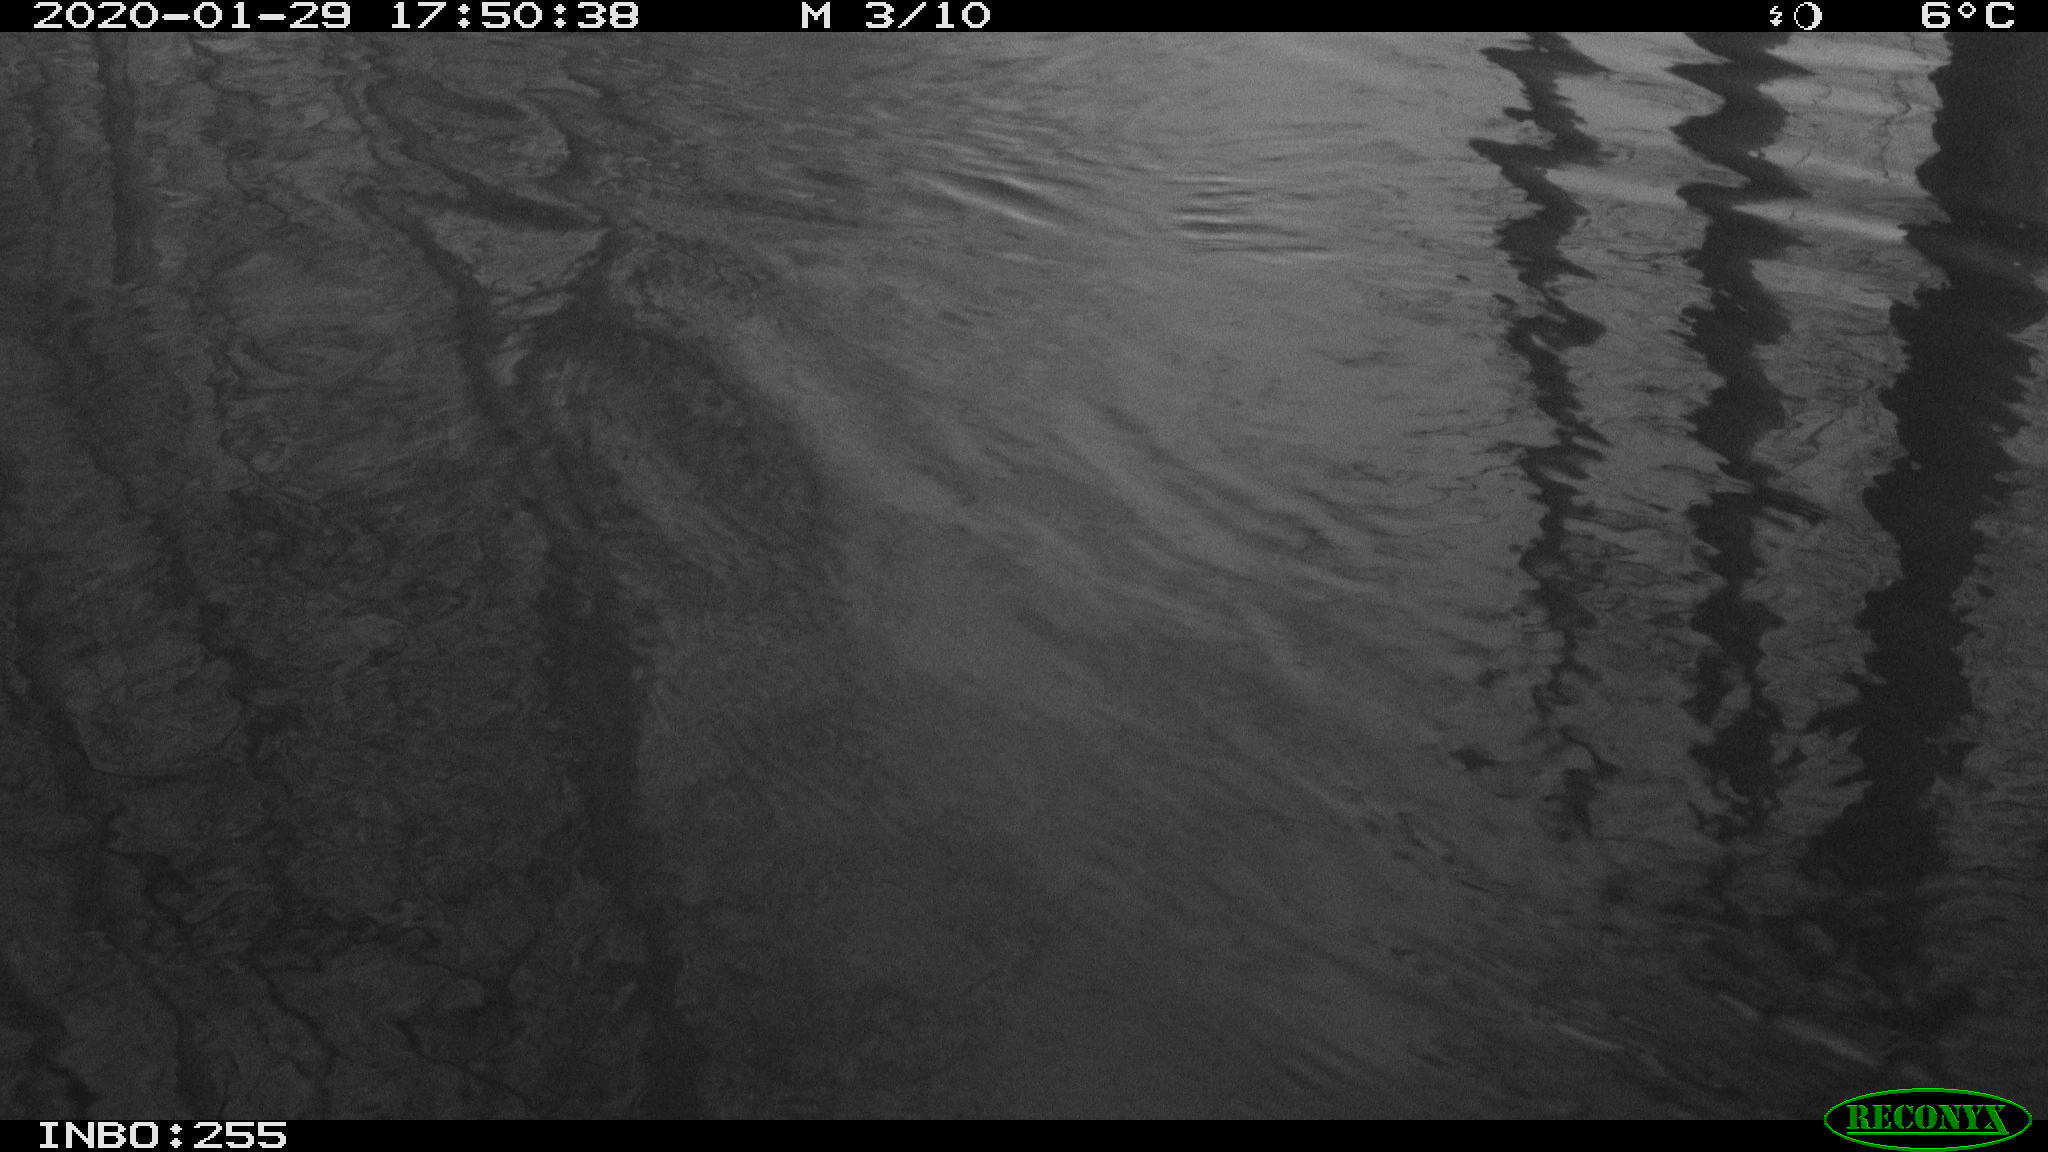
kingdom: Animalia
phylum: Chordata
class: Aves
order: Anseriformes
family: Anatidae
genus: Anas
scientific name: Anas platyrhynchos
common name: Mallard
